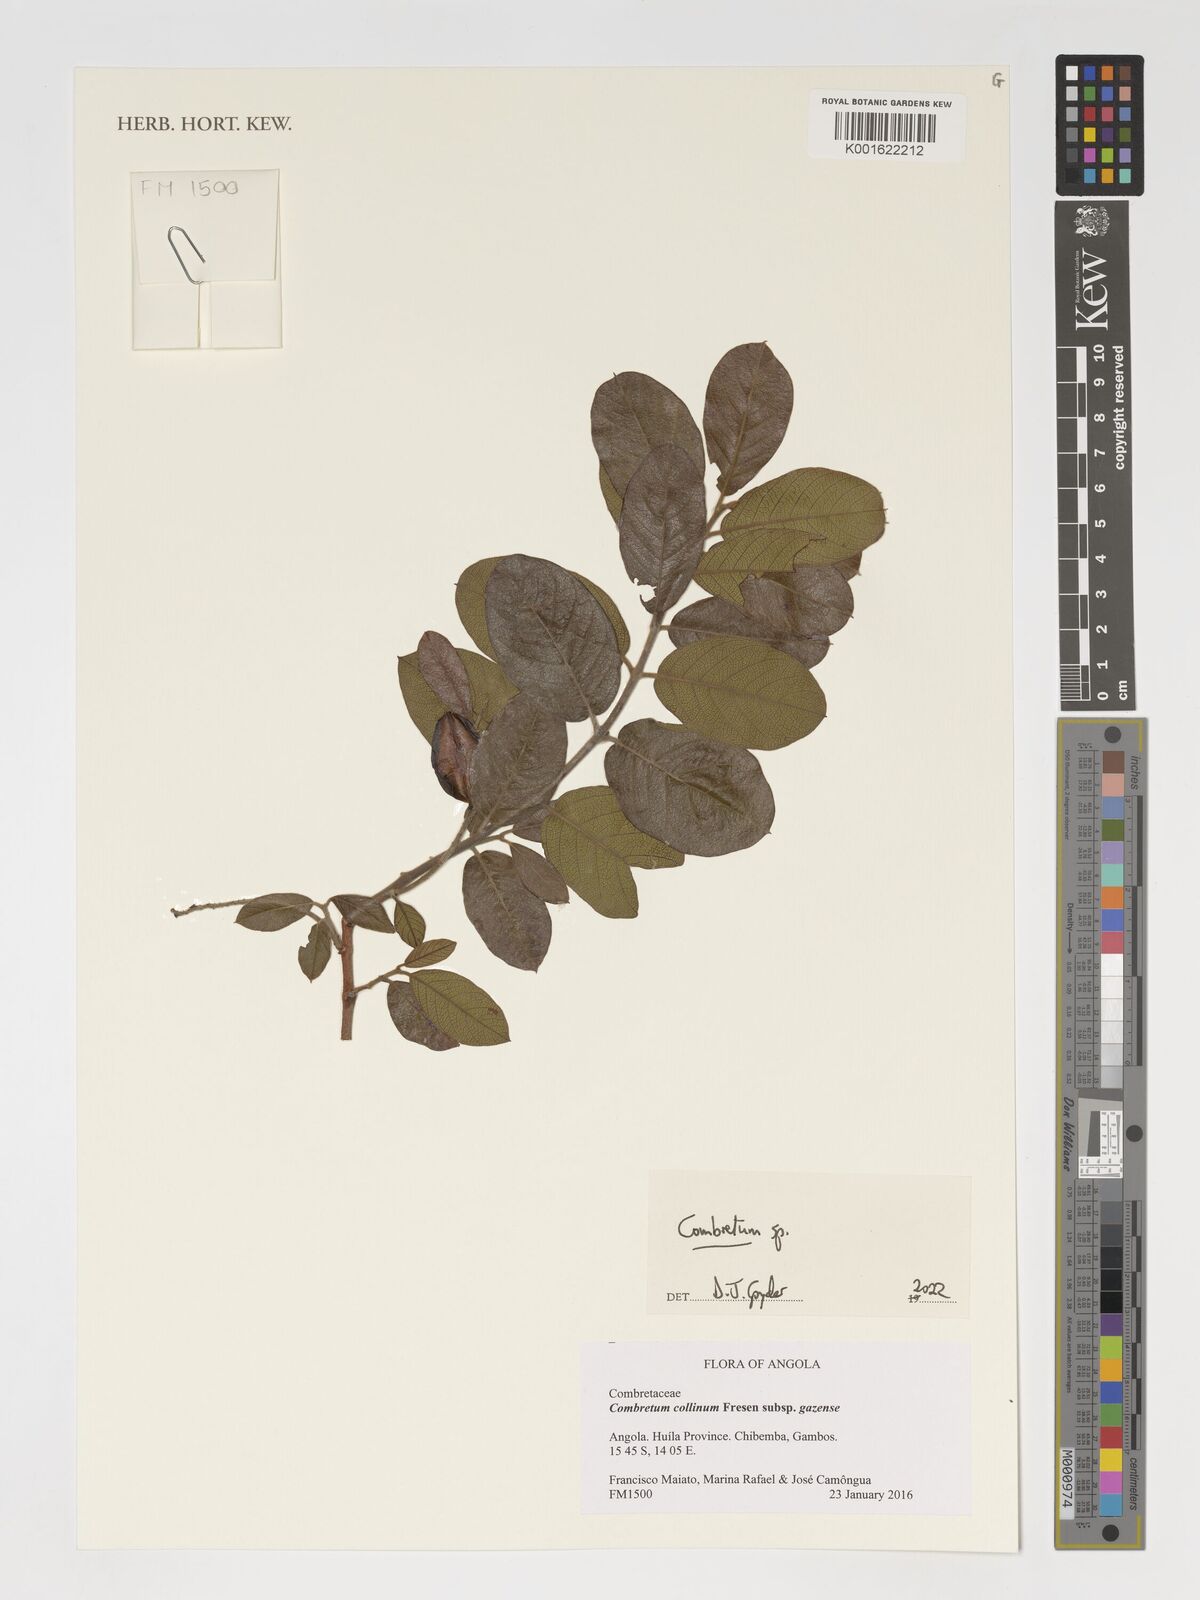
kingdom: Plantae
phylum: Tracheophyta
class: Magnoliopsida
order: Myrtales
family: Combretaceae
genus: Combretum
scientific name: Combretum
